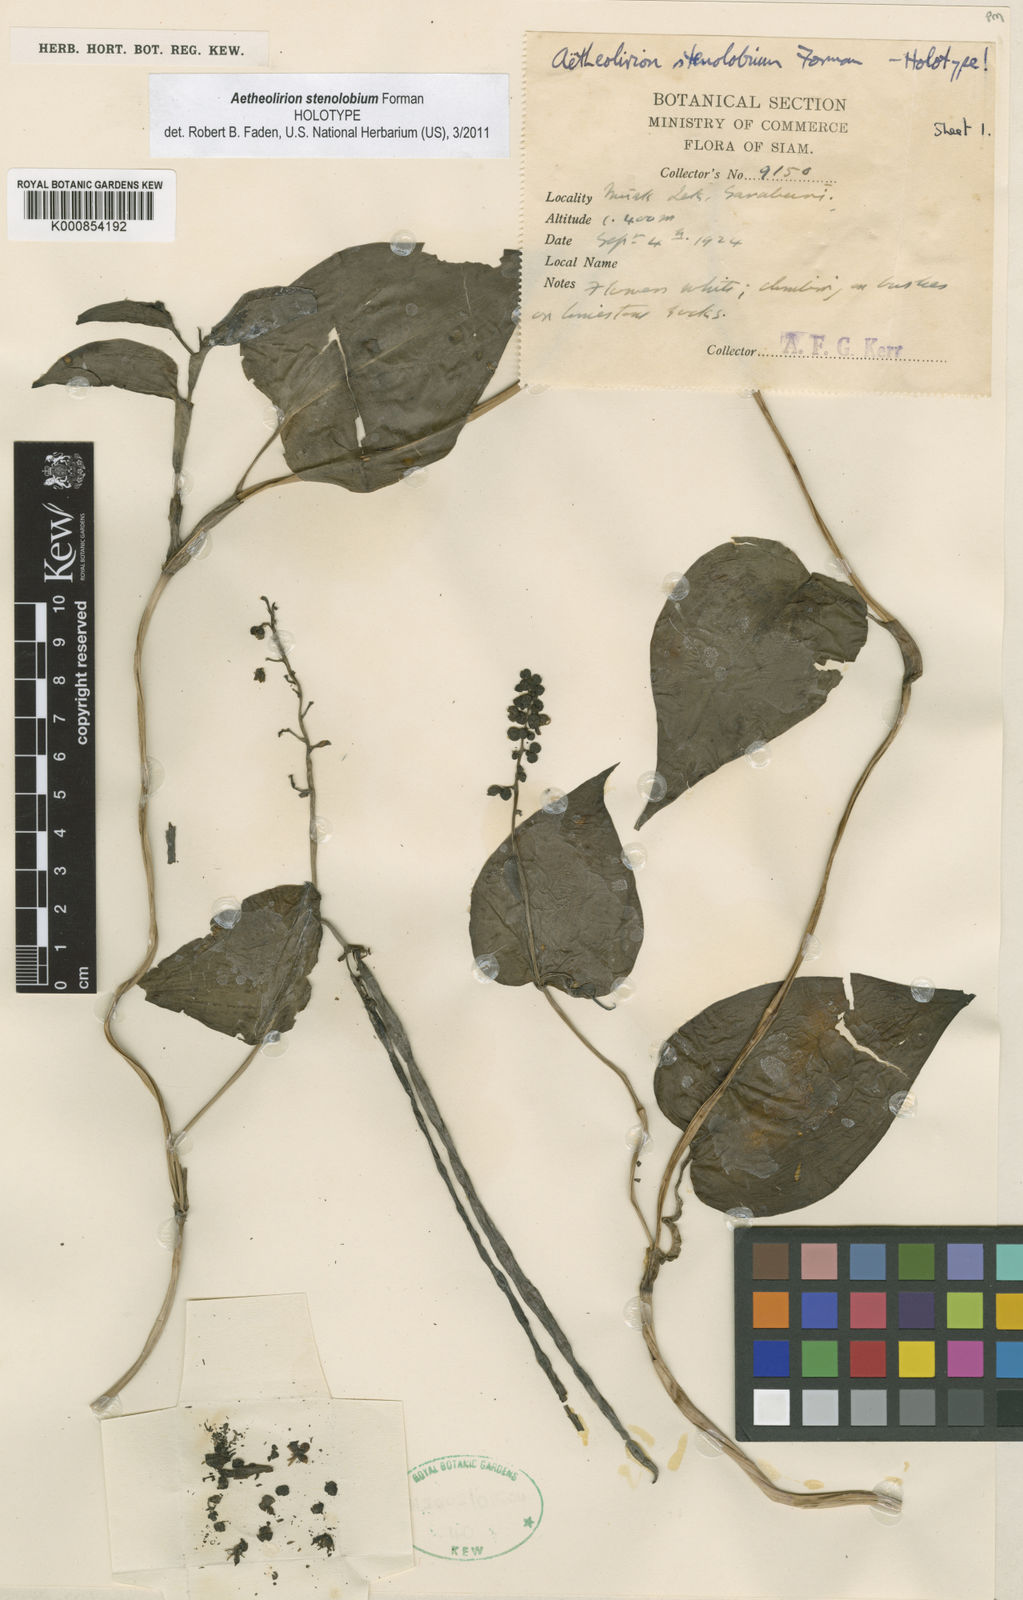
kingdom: Plantae
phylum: Tracheophyta
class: Liliopsida
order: Commelinales
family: Commelinaceae
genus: Aetheolirion
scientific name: Aetheolirion stenolobium
